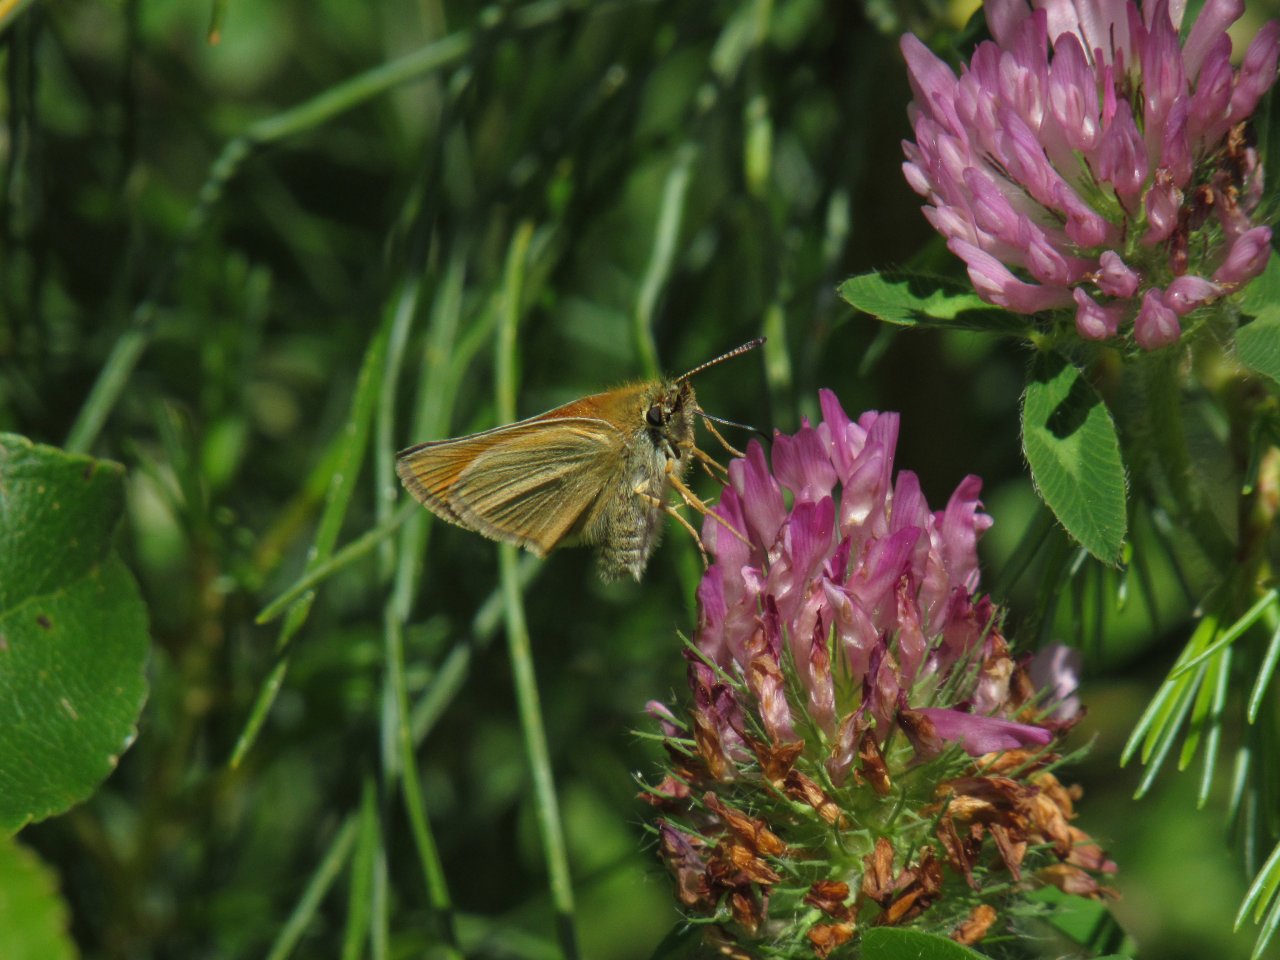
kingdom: Animalia
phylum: Arthropoda
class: Insecta
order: Lepidoptera
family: Hesperiidae
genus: Thymelicus
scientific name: Thymelicus lineola
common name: European Skipper
